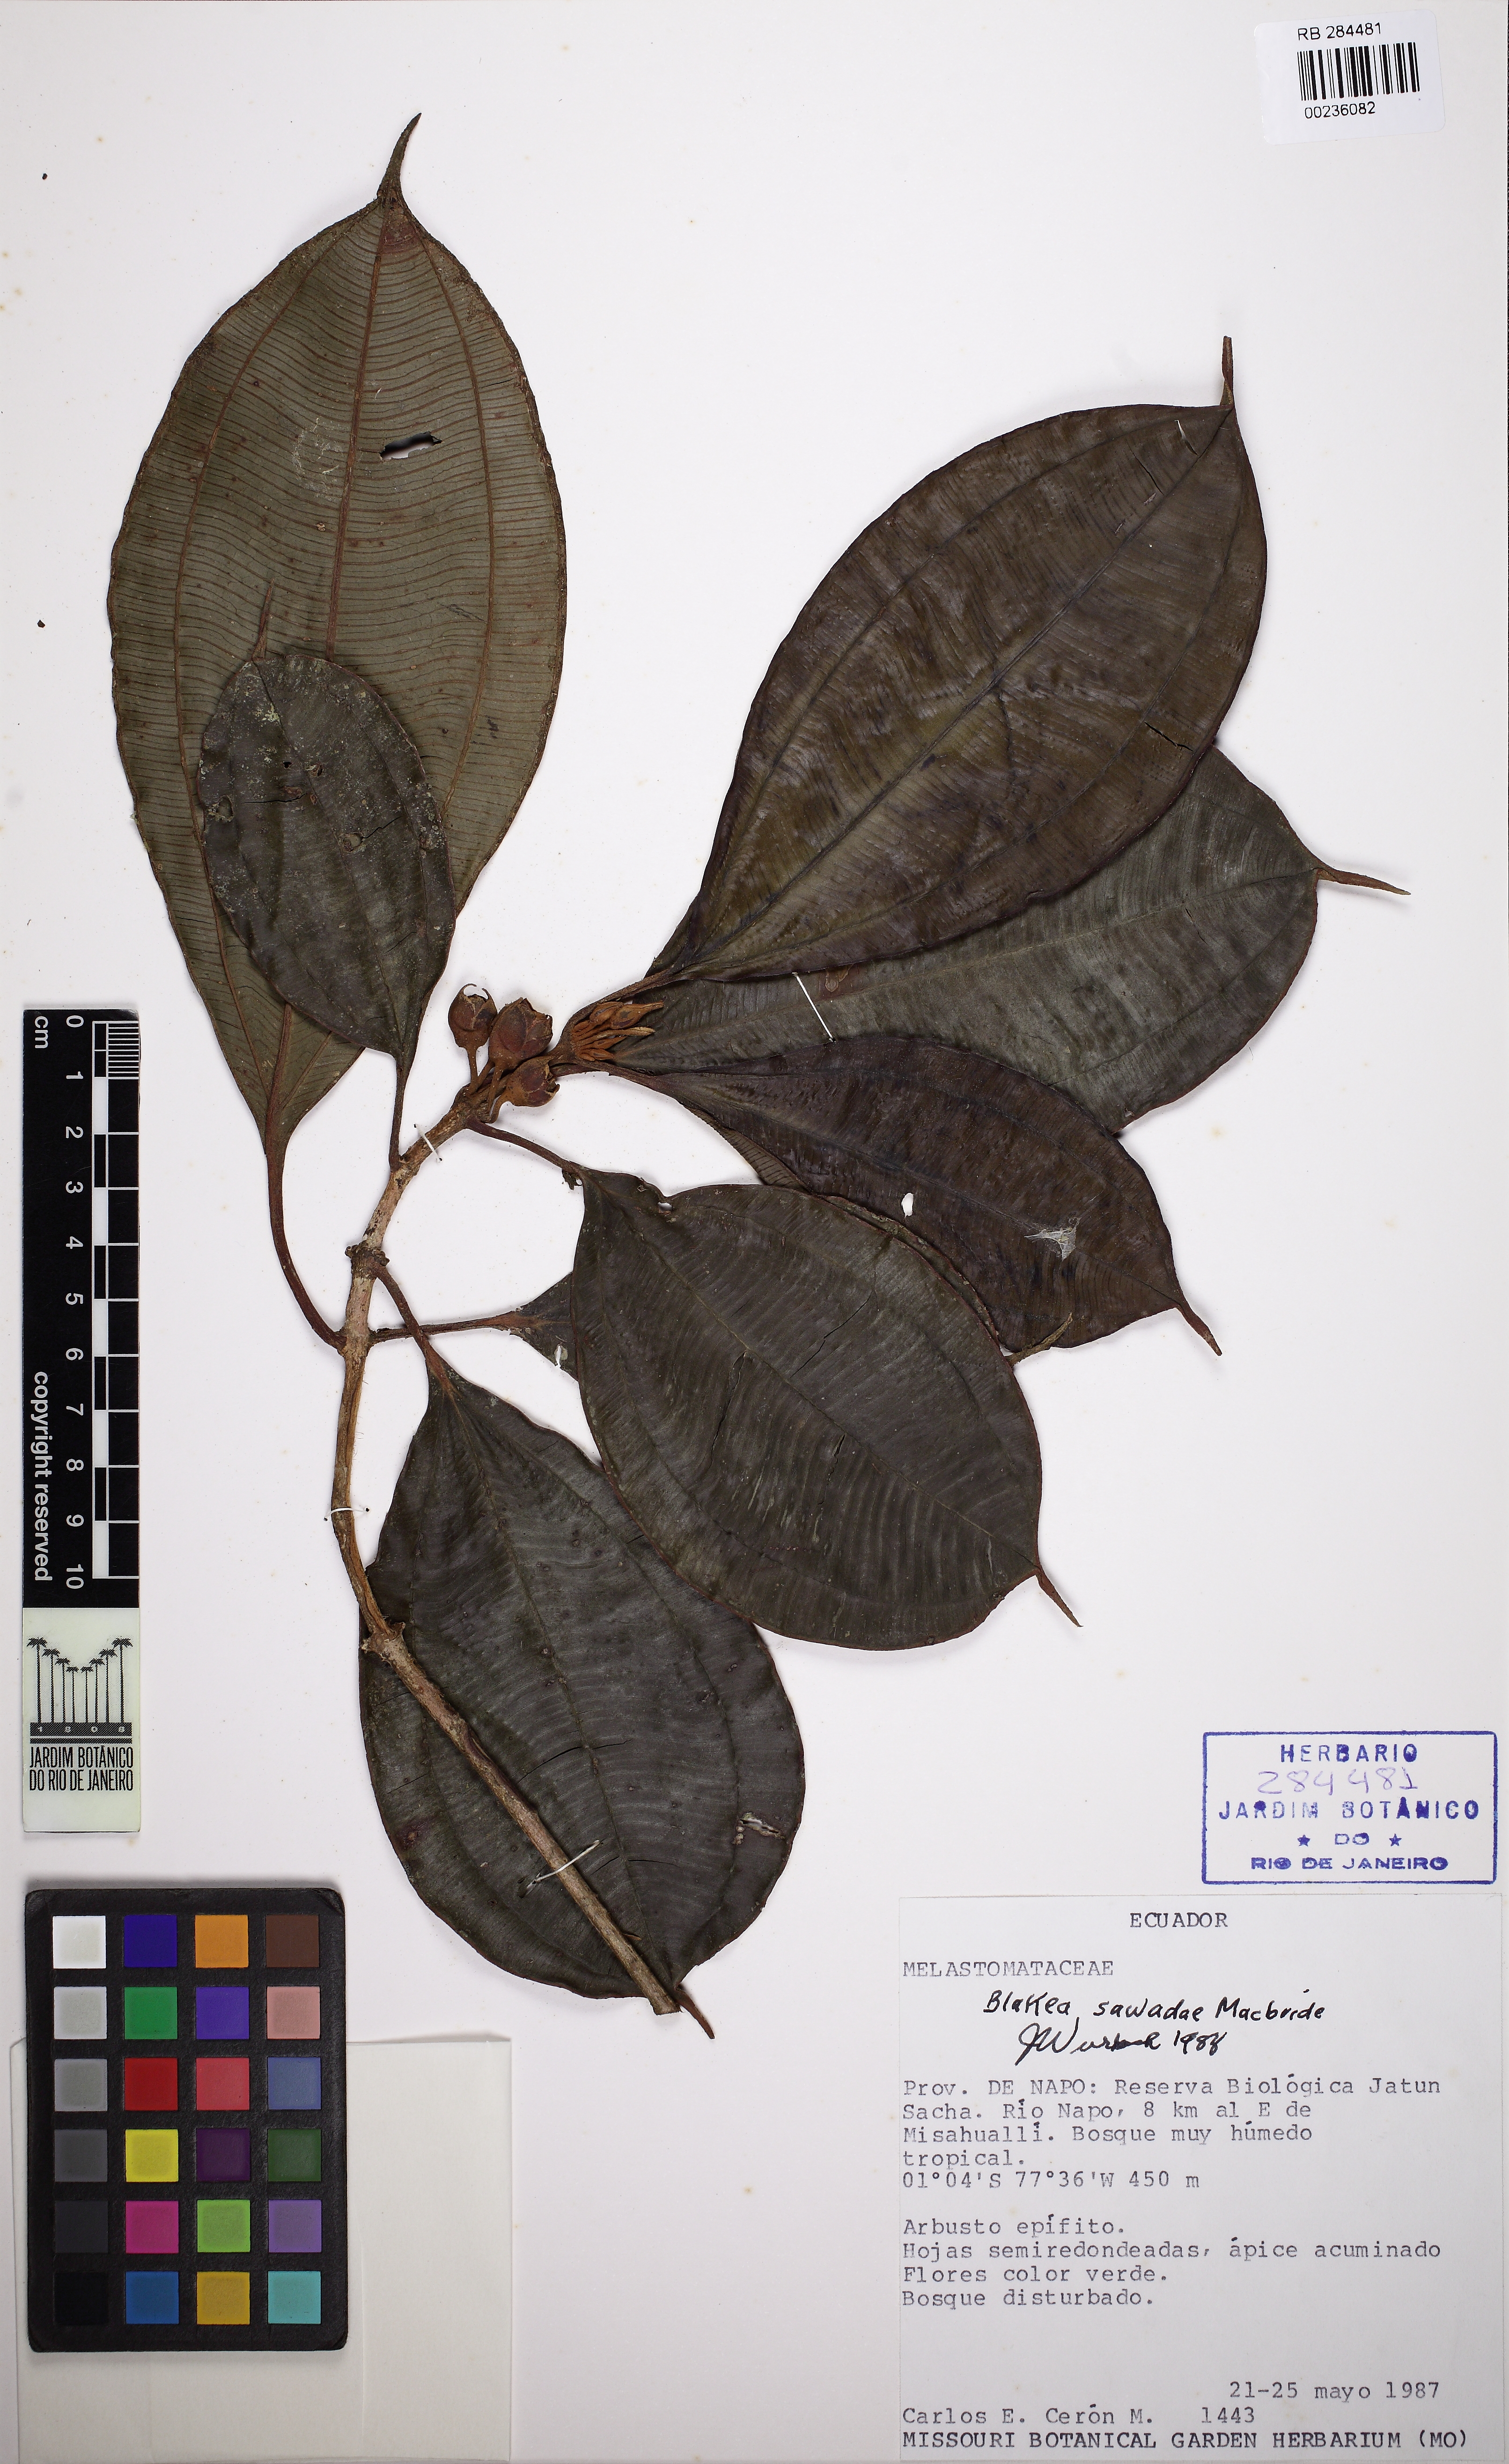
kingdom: Plantae
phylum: Tracheophyta
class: Magnoliopsida
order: Myrtales
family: Melastomataceae
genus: Blakea
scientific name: Blakea sawadae
